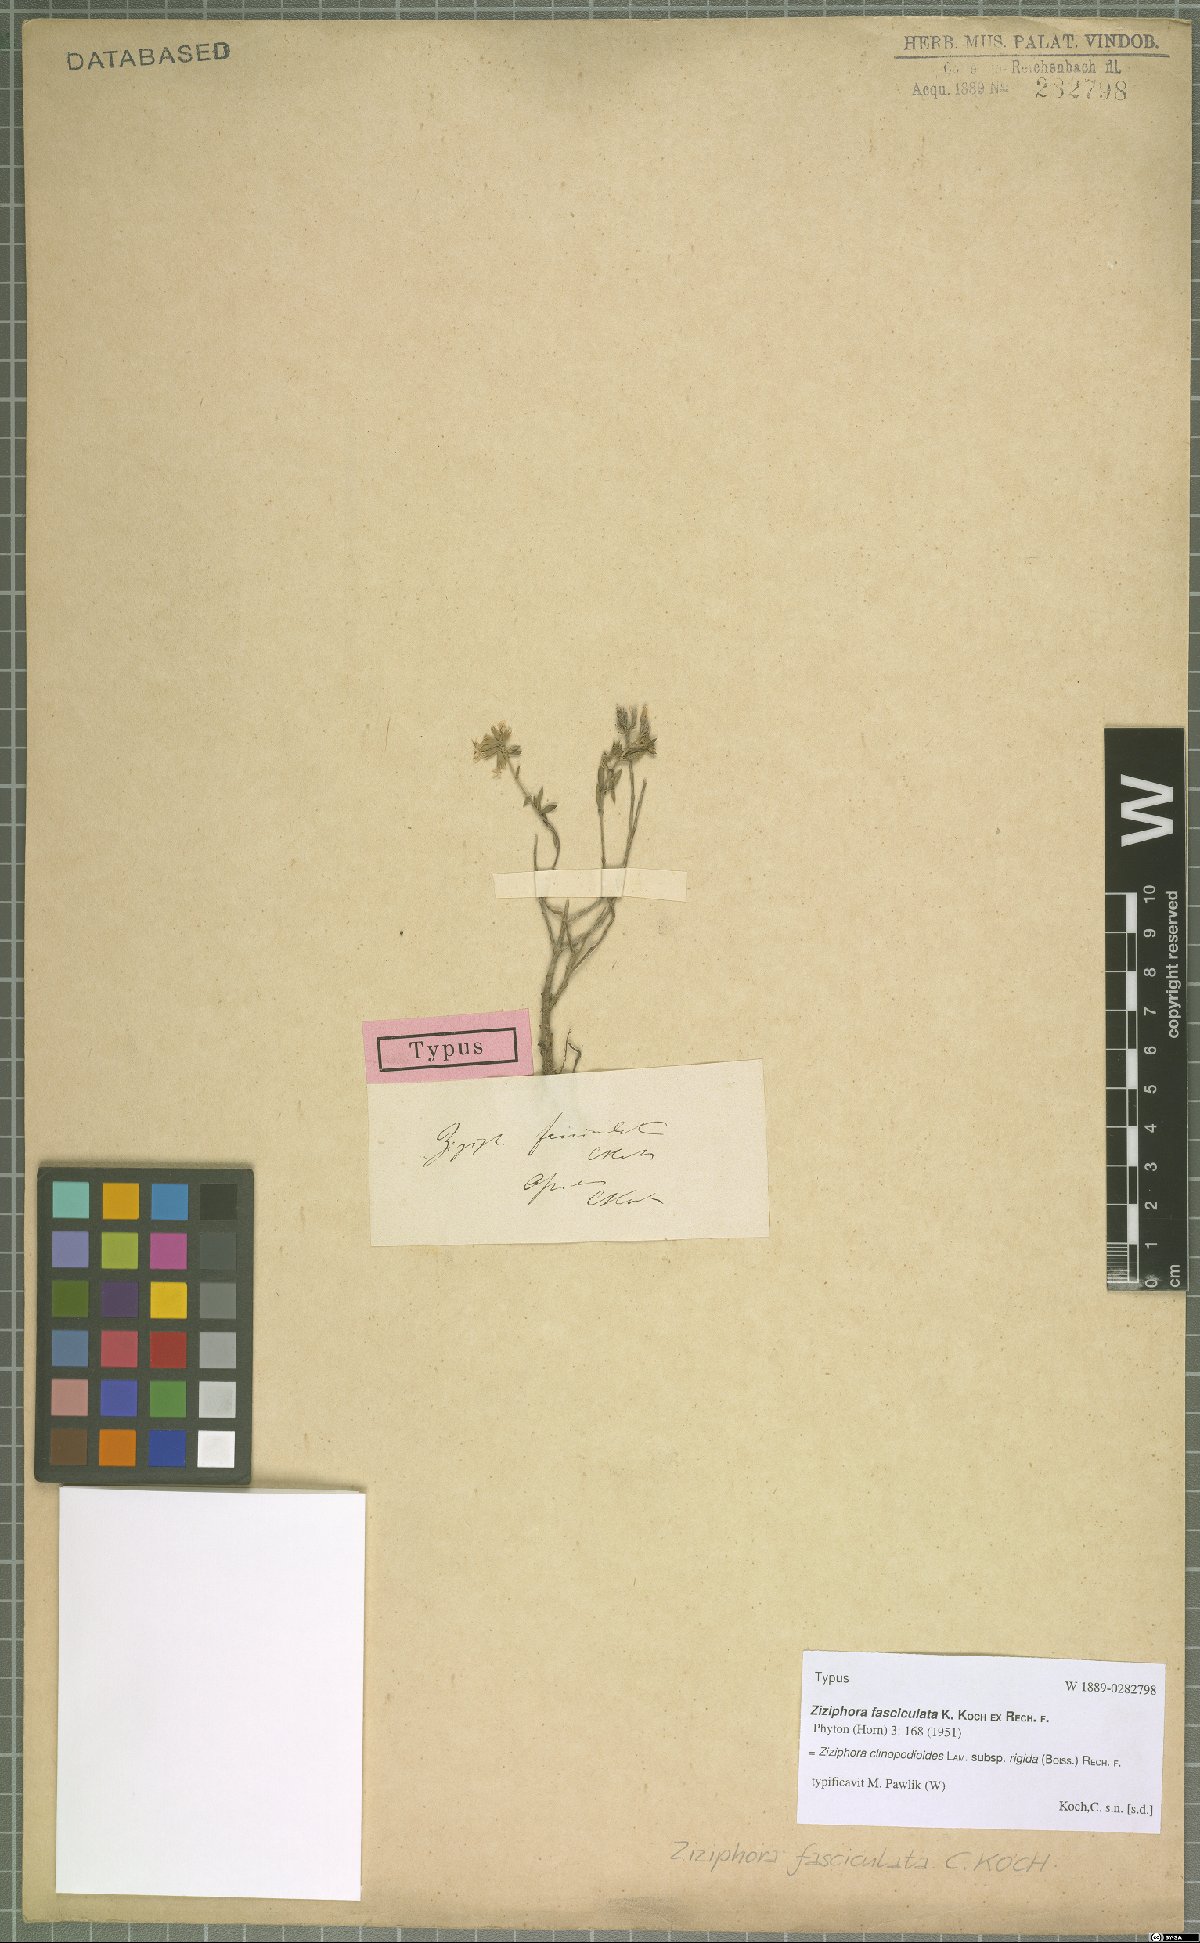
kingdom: Plantae
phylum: Tracheophyta
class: Magnoliopsida
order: Lamiales
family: Lamiaceae
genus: Ziziphora
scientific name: Ziziphora clinopodioides
